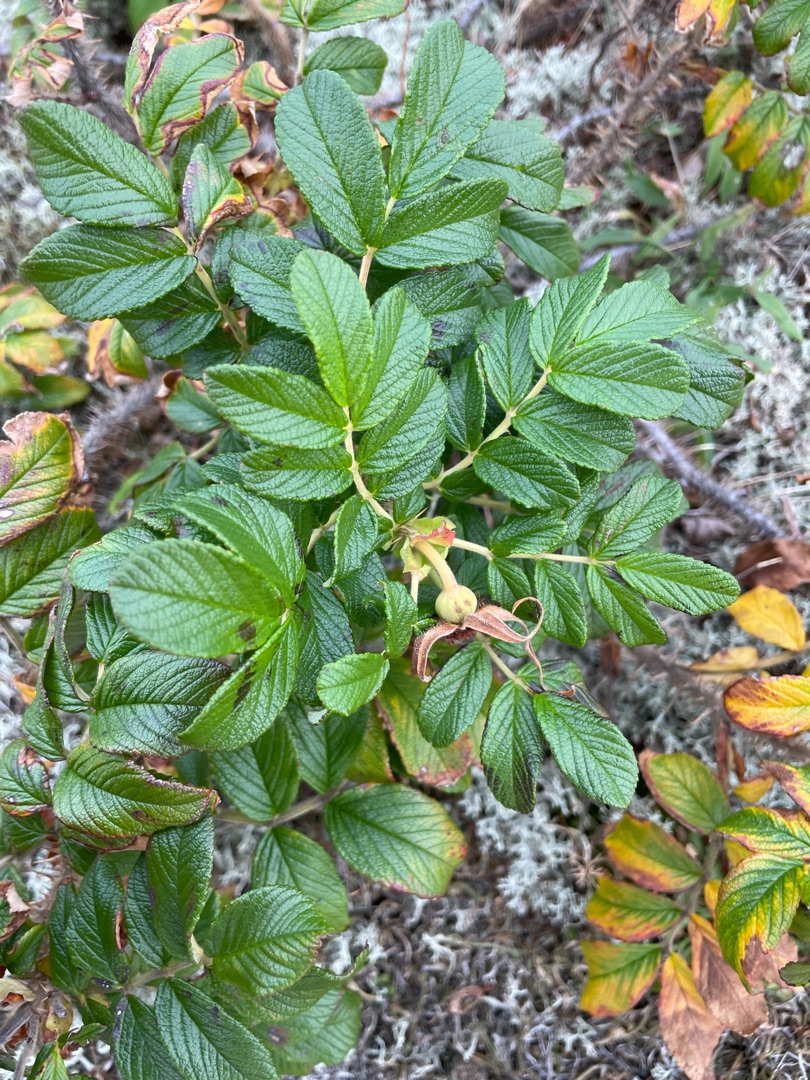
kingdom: Plantae
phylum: Tracheophyta
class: Magnoliopsida
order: Rosales
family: Rosaceae
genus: Rosa
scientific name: Rosa rugosa
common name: Rynket rose
